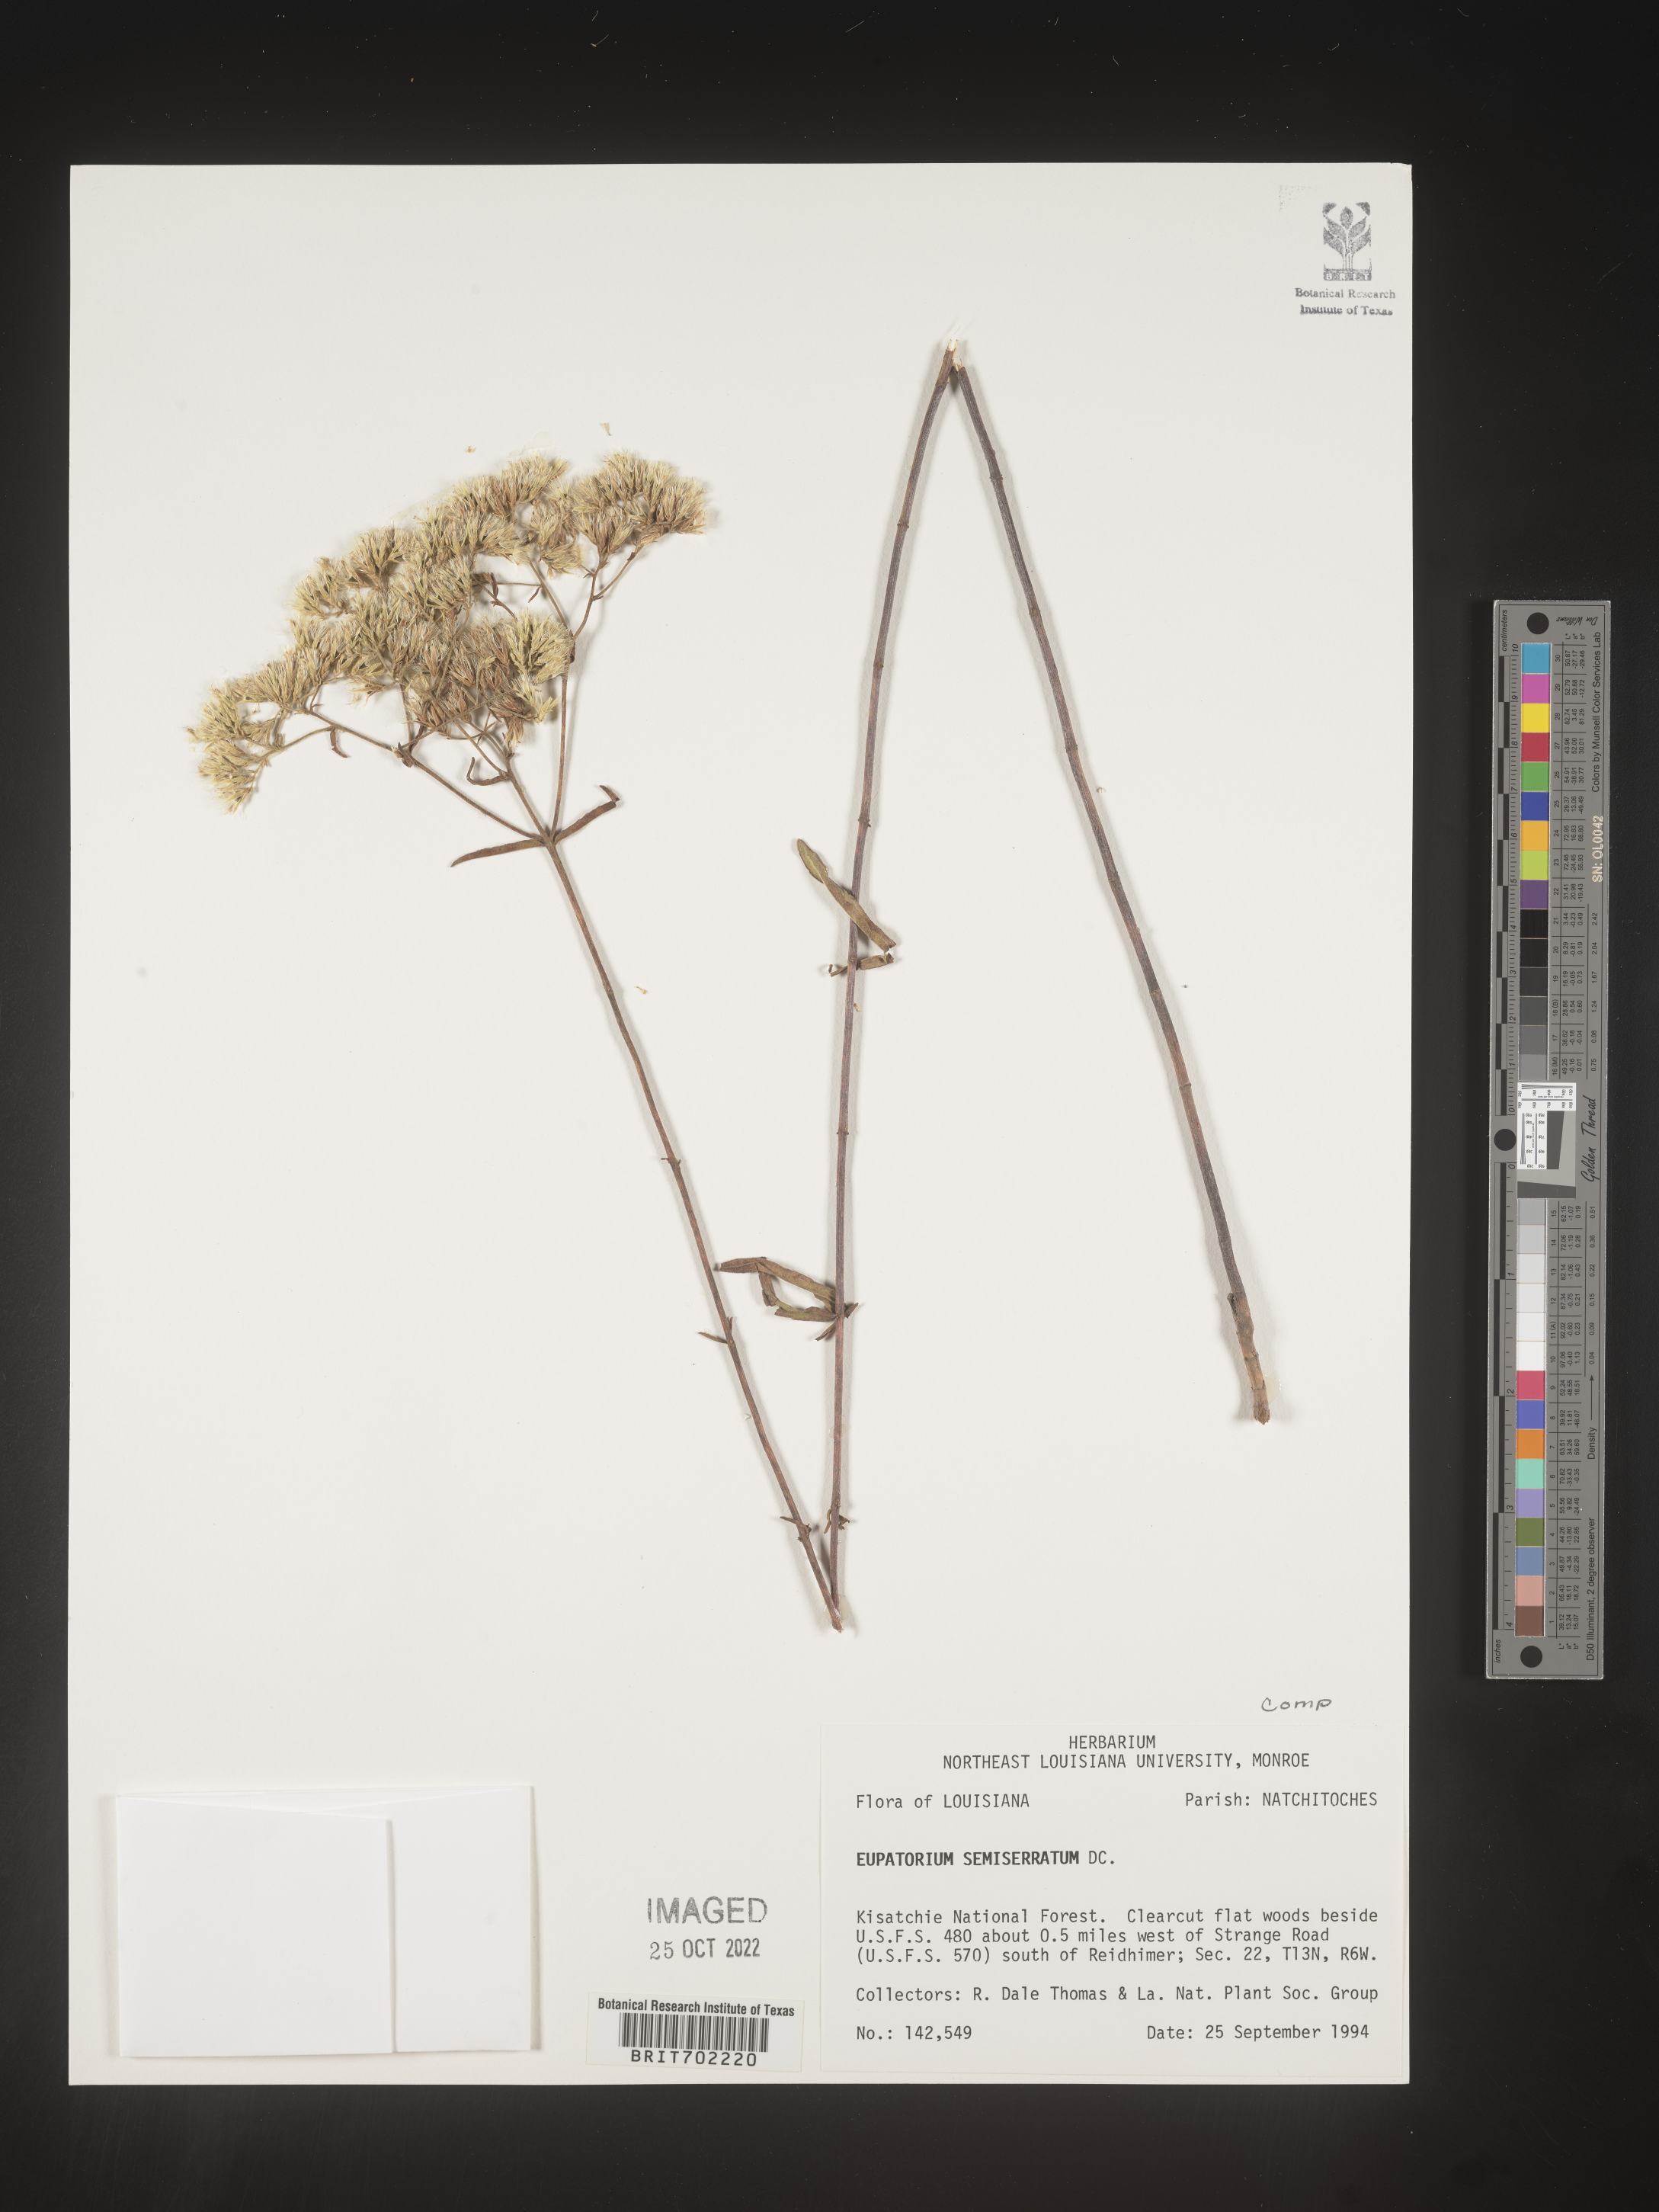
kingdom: Plantae
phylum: Tracheophyta
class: Magnoliopsida
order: Asterales
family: Asteraceae
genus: Eupatorium
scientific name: Eupatorium semiserratum
